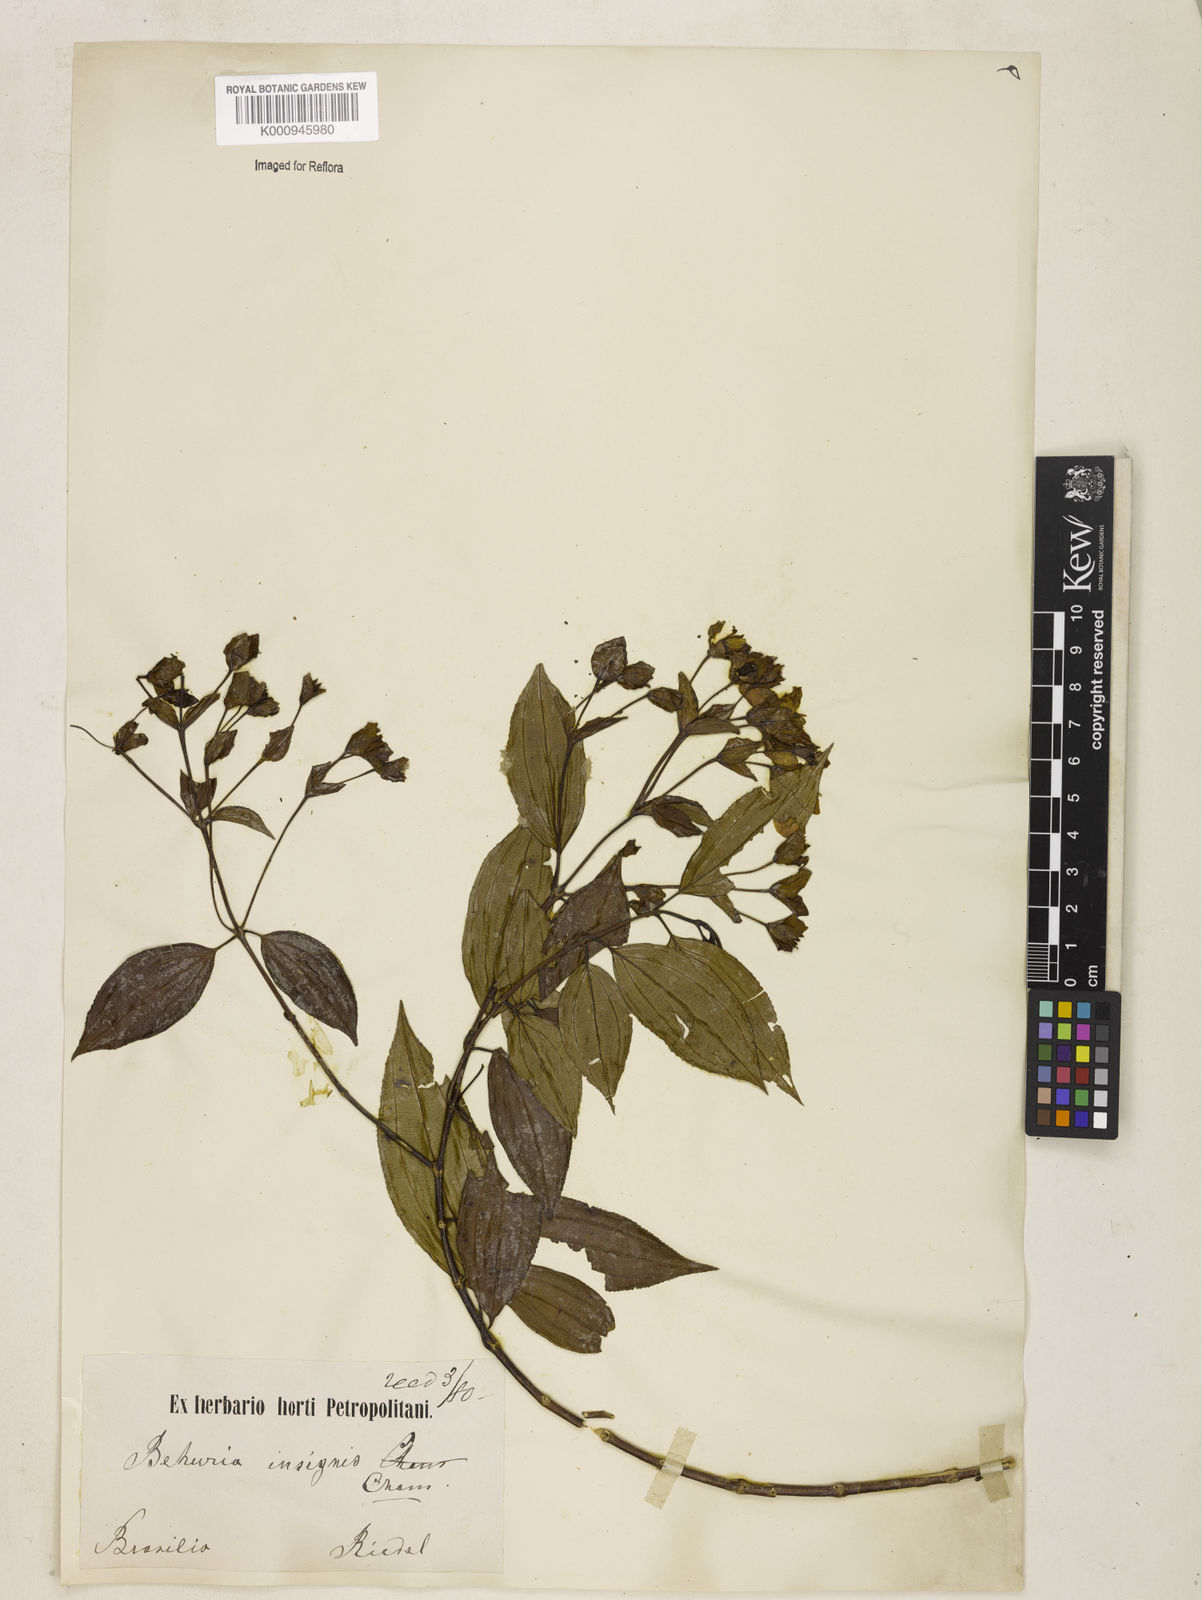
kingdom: Plantae
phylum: Tracheophyta
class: Magnoliopsida
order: Myrtales
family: Melastomataceae
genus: Huberia
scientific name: Huberia insignis
